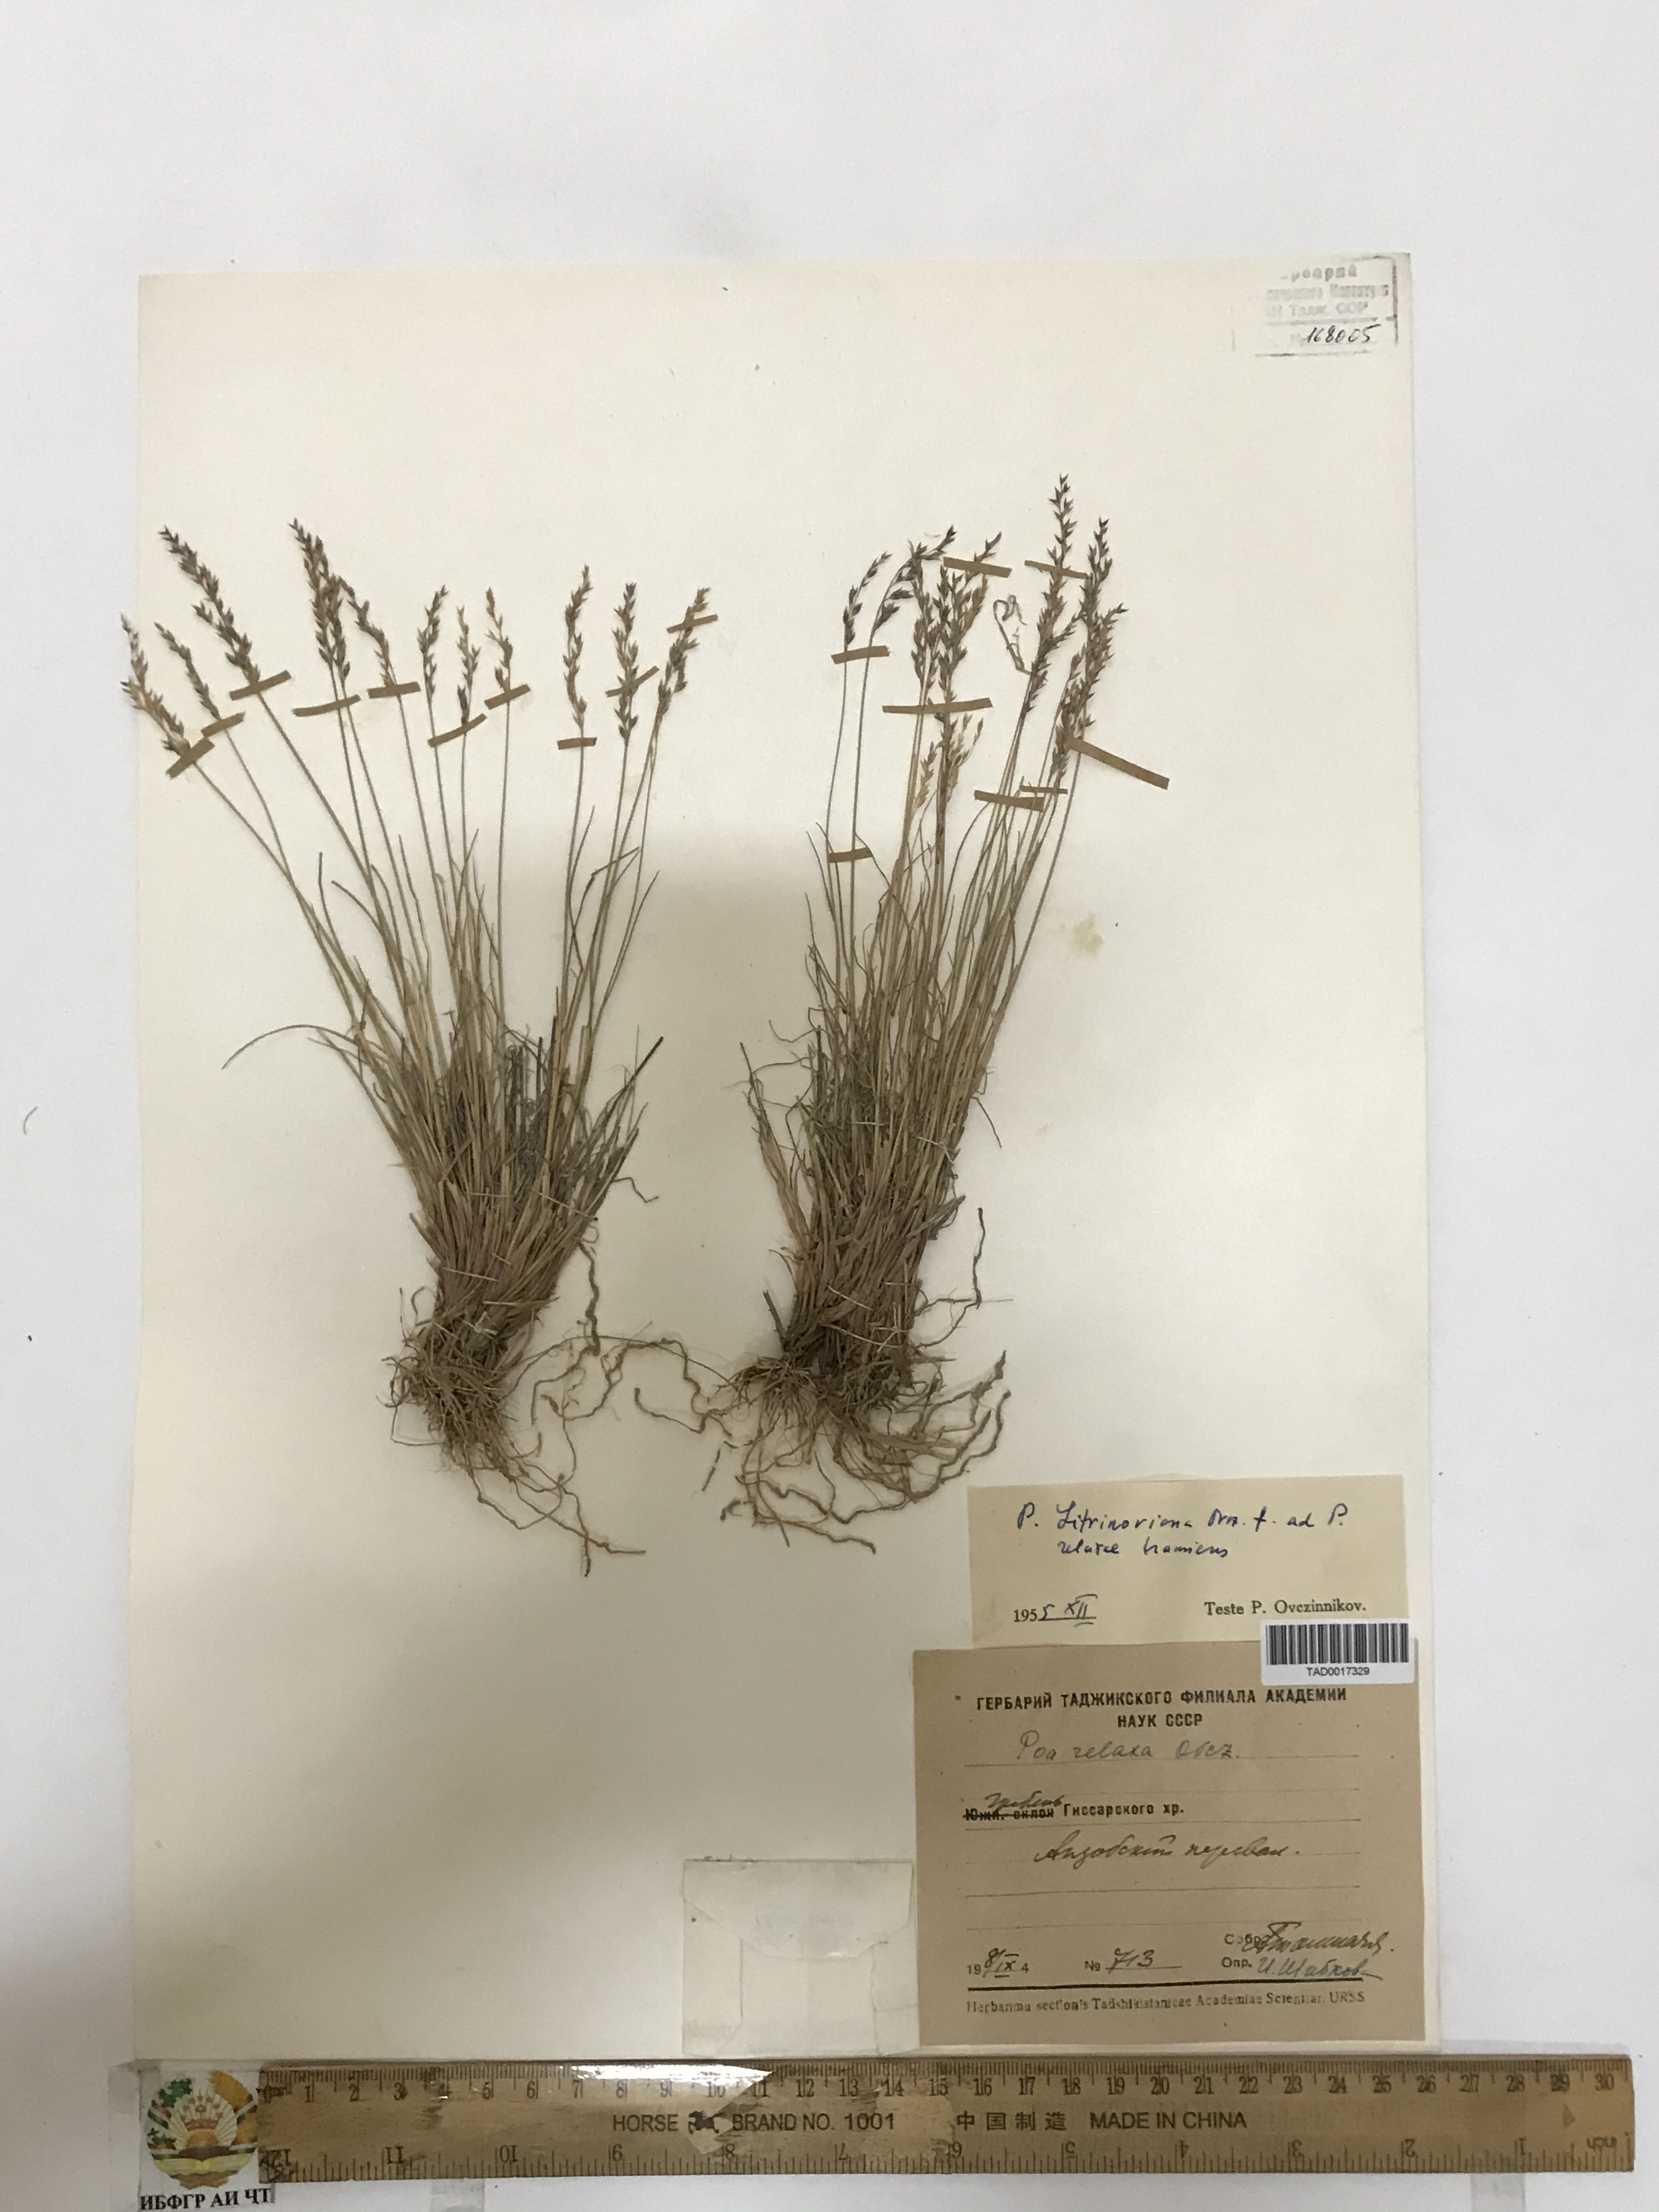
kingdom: Plantae
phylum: Tracheophyta
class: Liliopsida
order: Poales
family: Poaceae
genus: Poa
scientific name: Poa reflexa
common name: Nodding bluegrass
